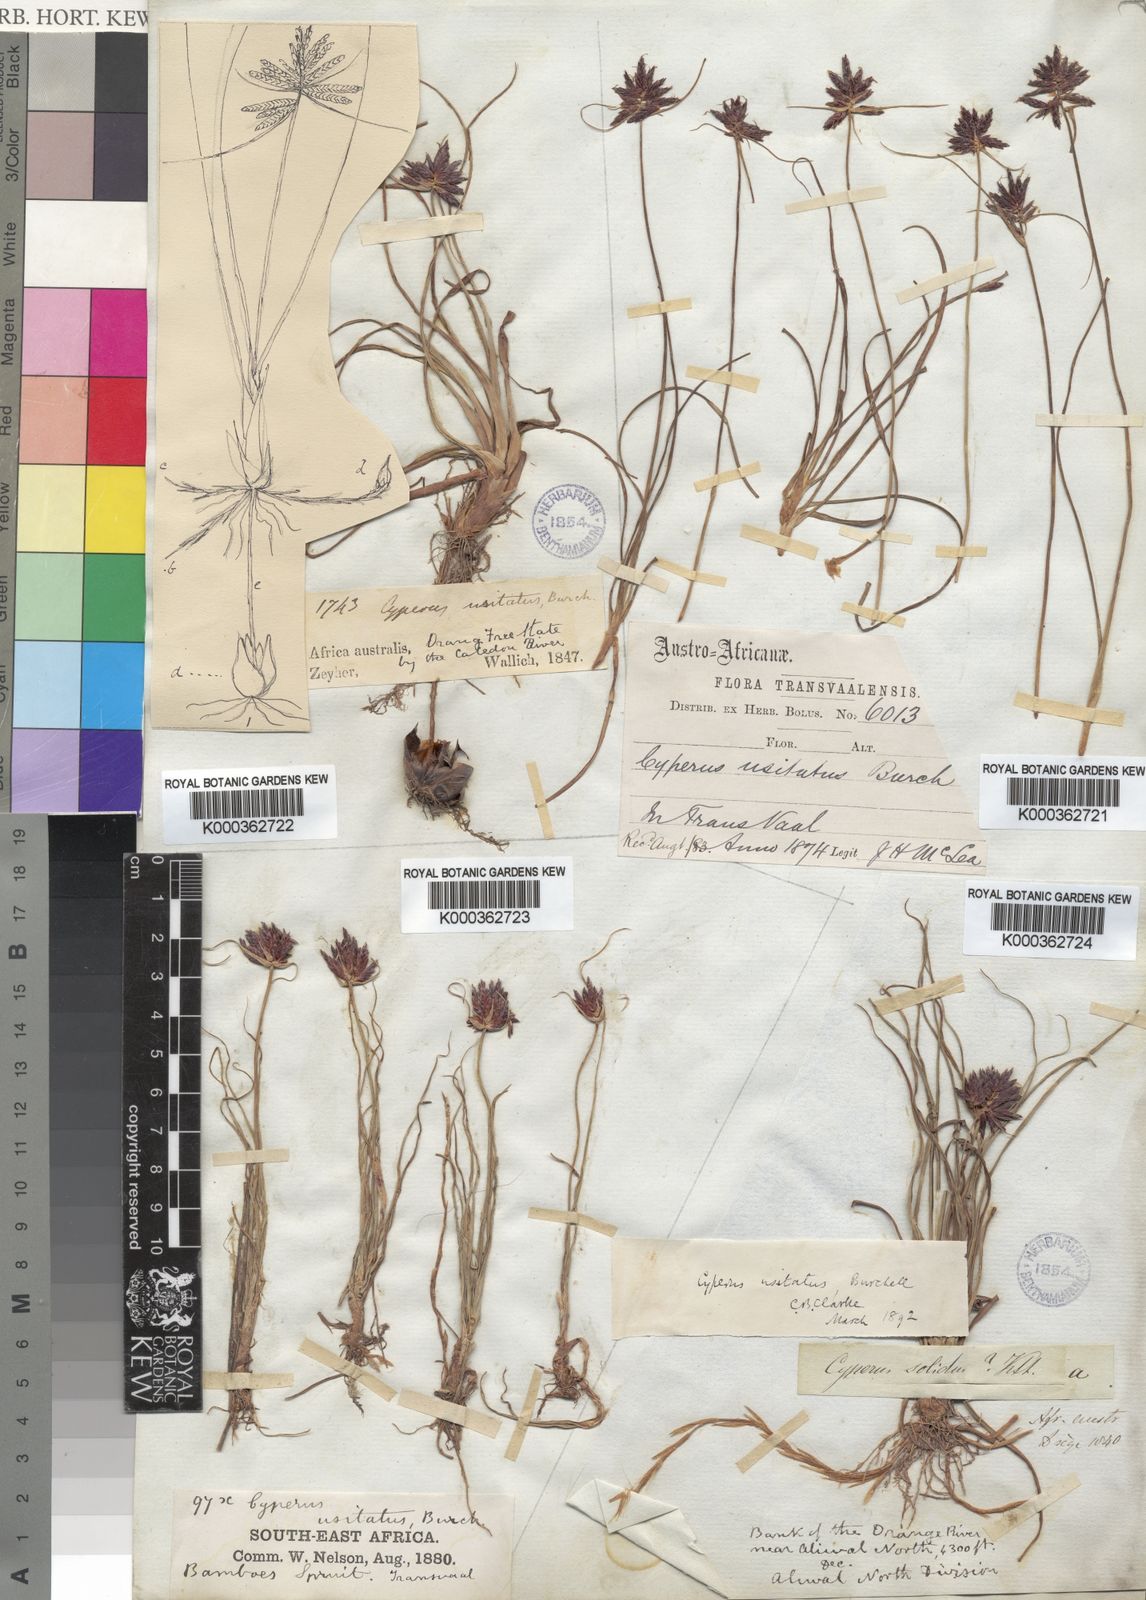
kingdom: Plantae
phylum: Tracheophyta
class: Liliopsida
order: Poales
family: Cyperaceae
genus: Cyperus
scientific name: Cyperus
